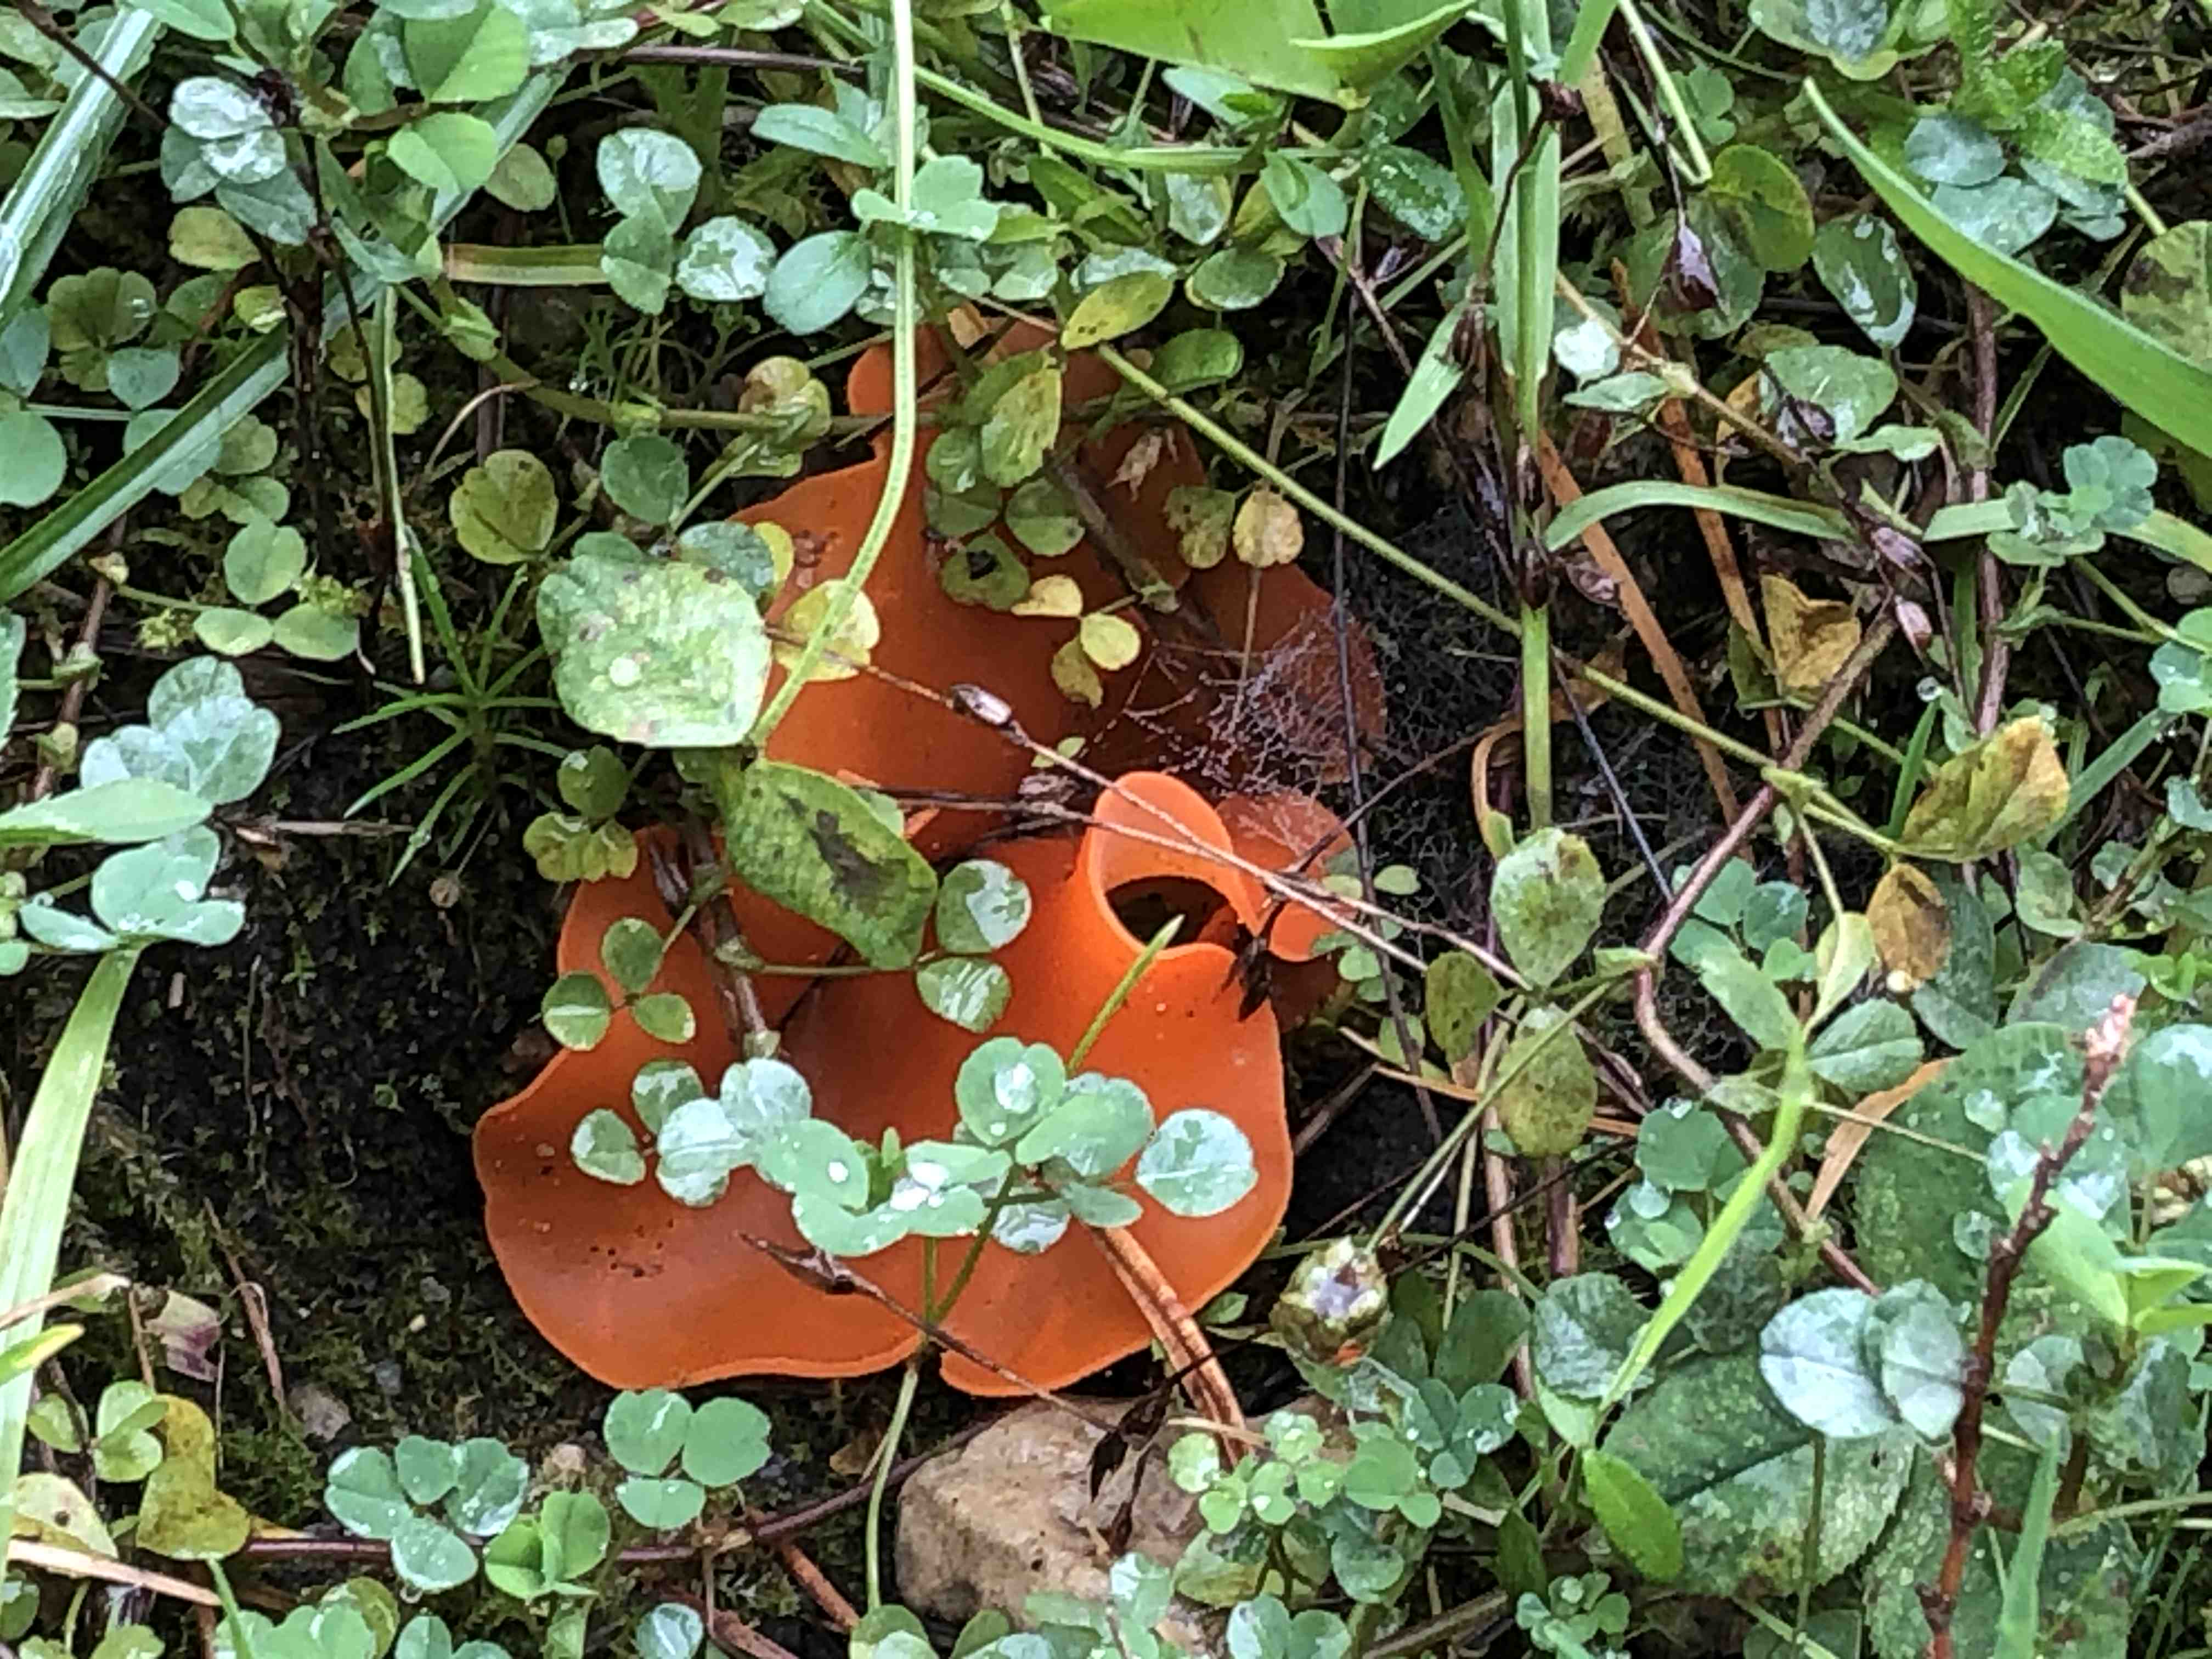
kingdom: Fungi
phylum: Ascomycota
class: Pezizomycetes
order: Pezizales
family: Pyronemataceae
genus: Aleuria
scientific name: Aleuria aurantia
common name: almindelig orangebæger
